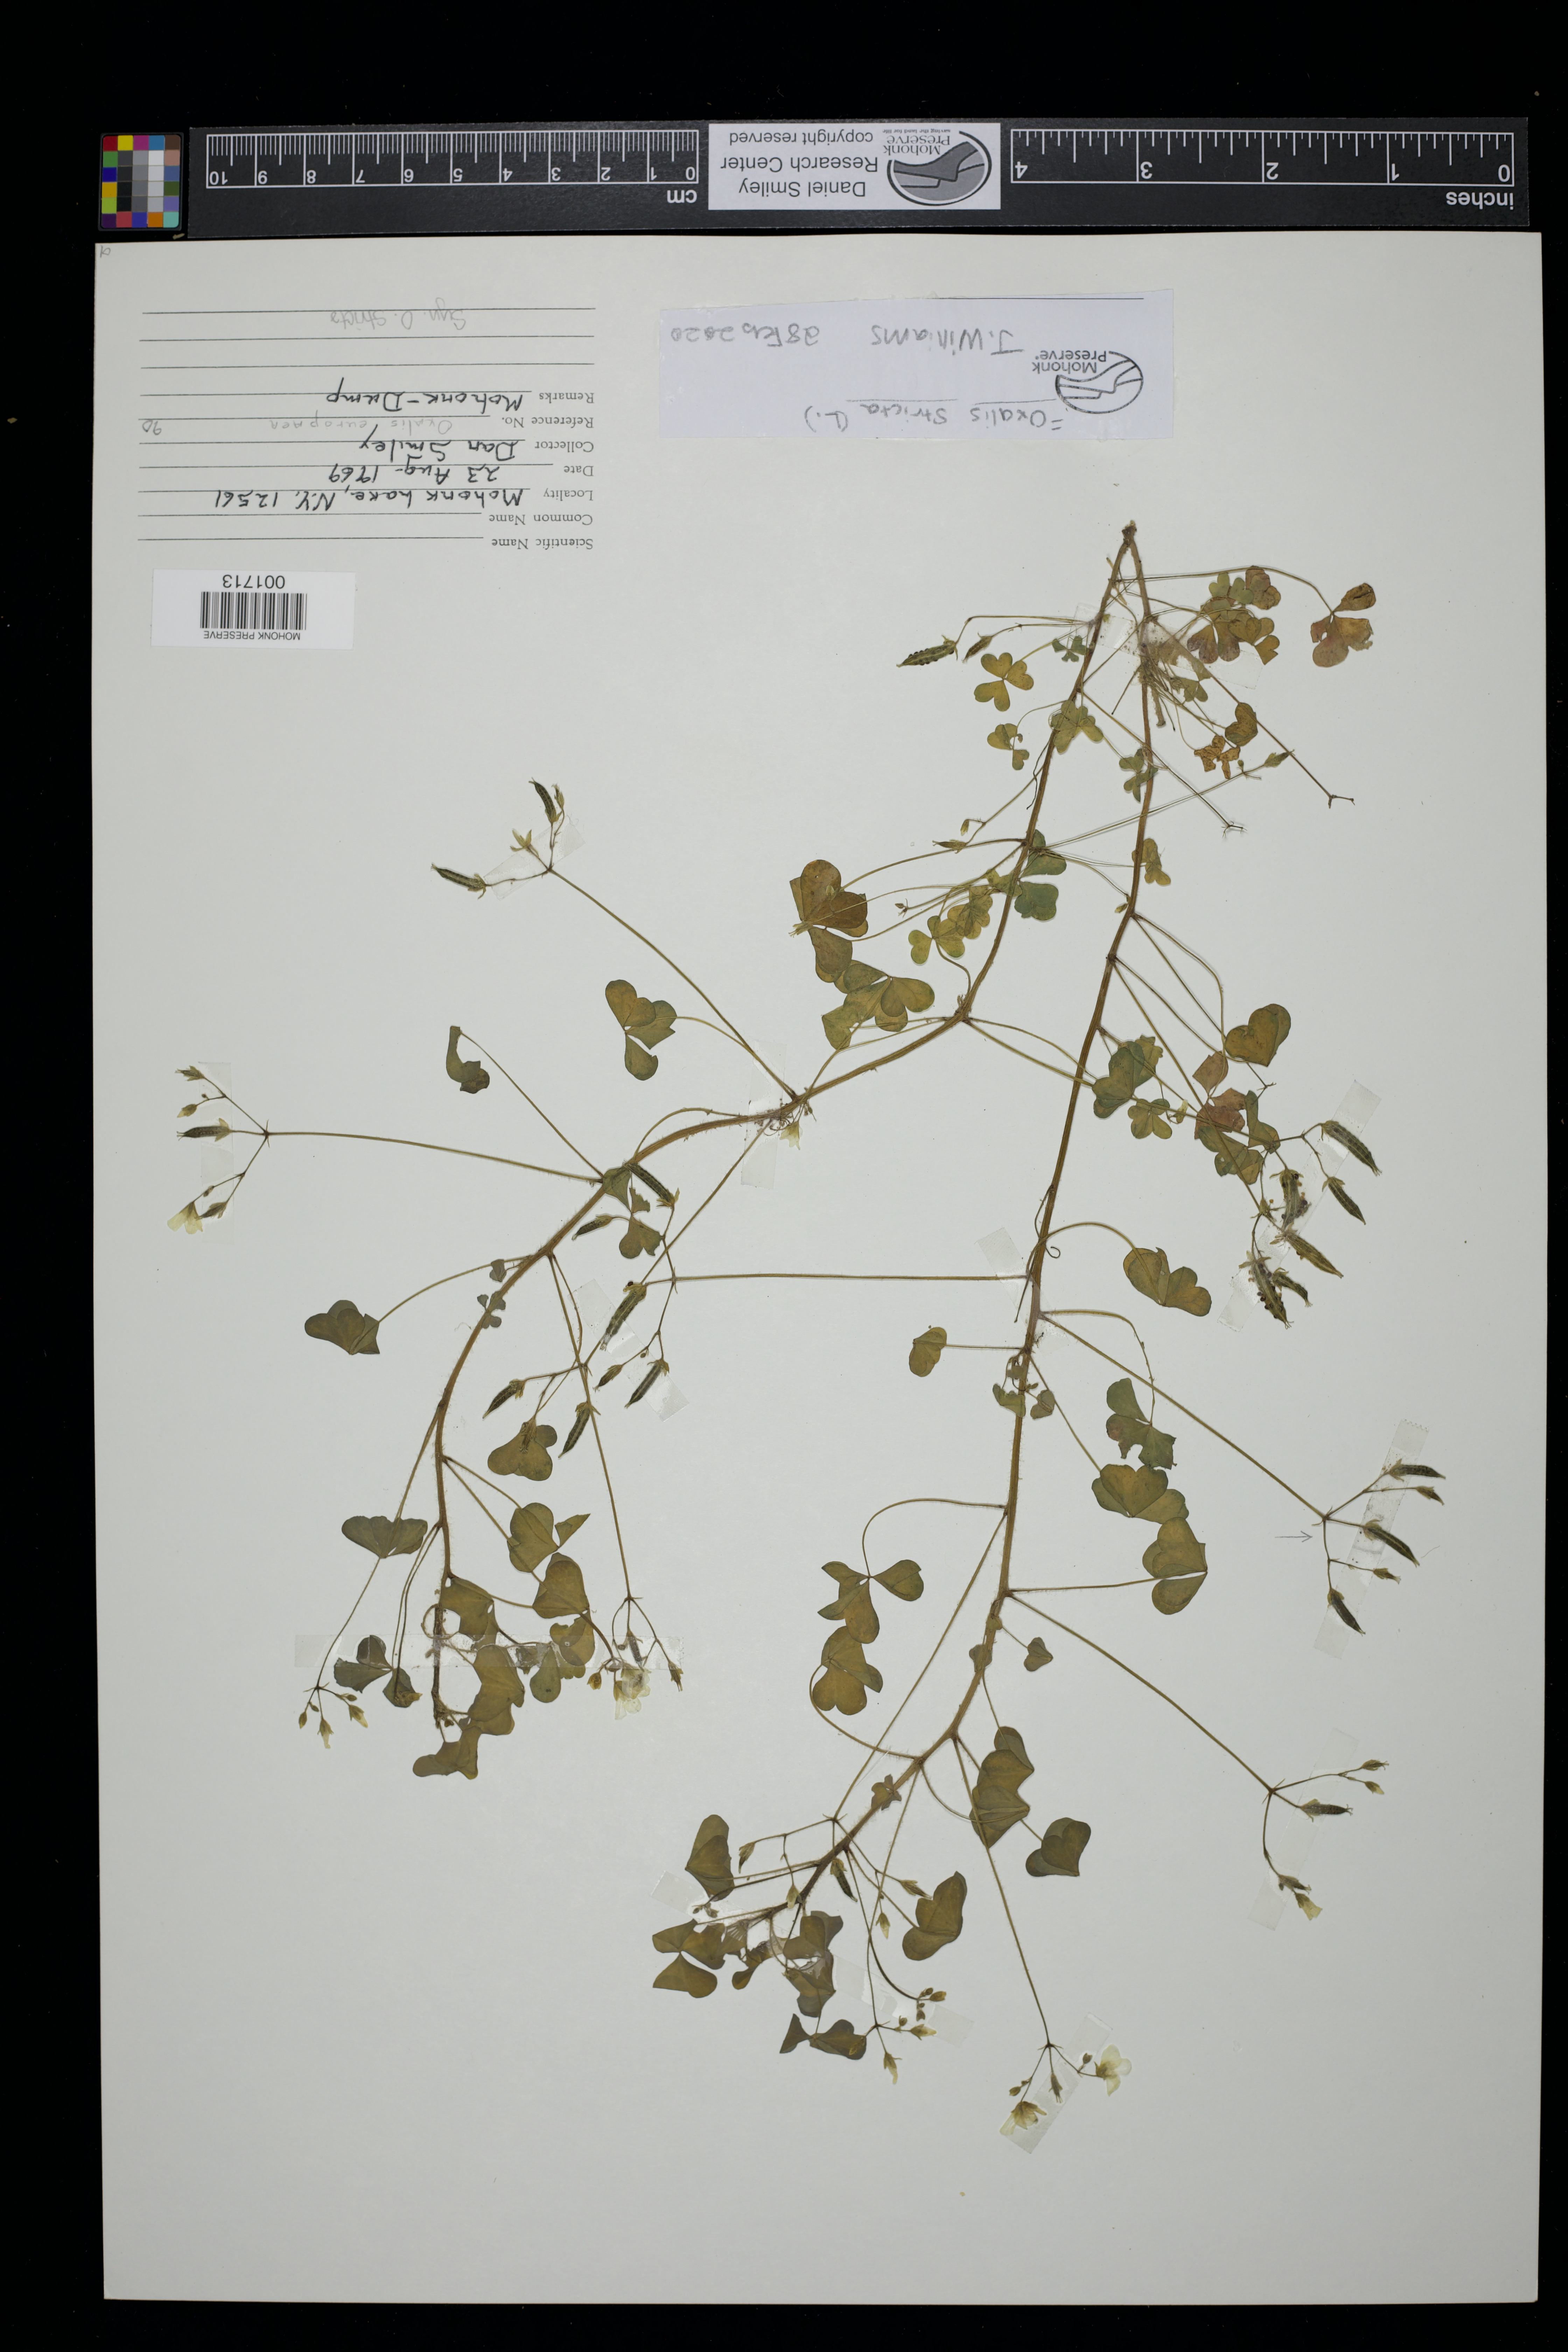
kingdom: Plantae
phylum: Tracheophyta
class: Magnoliopsida
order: Oxalidales
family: Oxalidaceae
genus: Oxalis
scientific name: Oxalis stricta
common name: Upright yellow-sorrel
